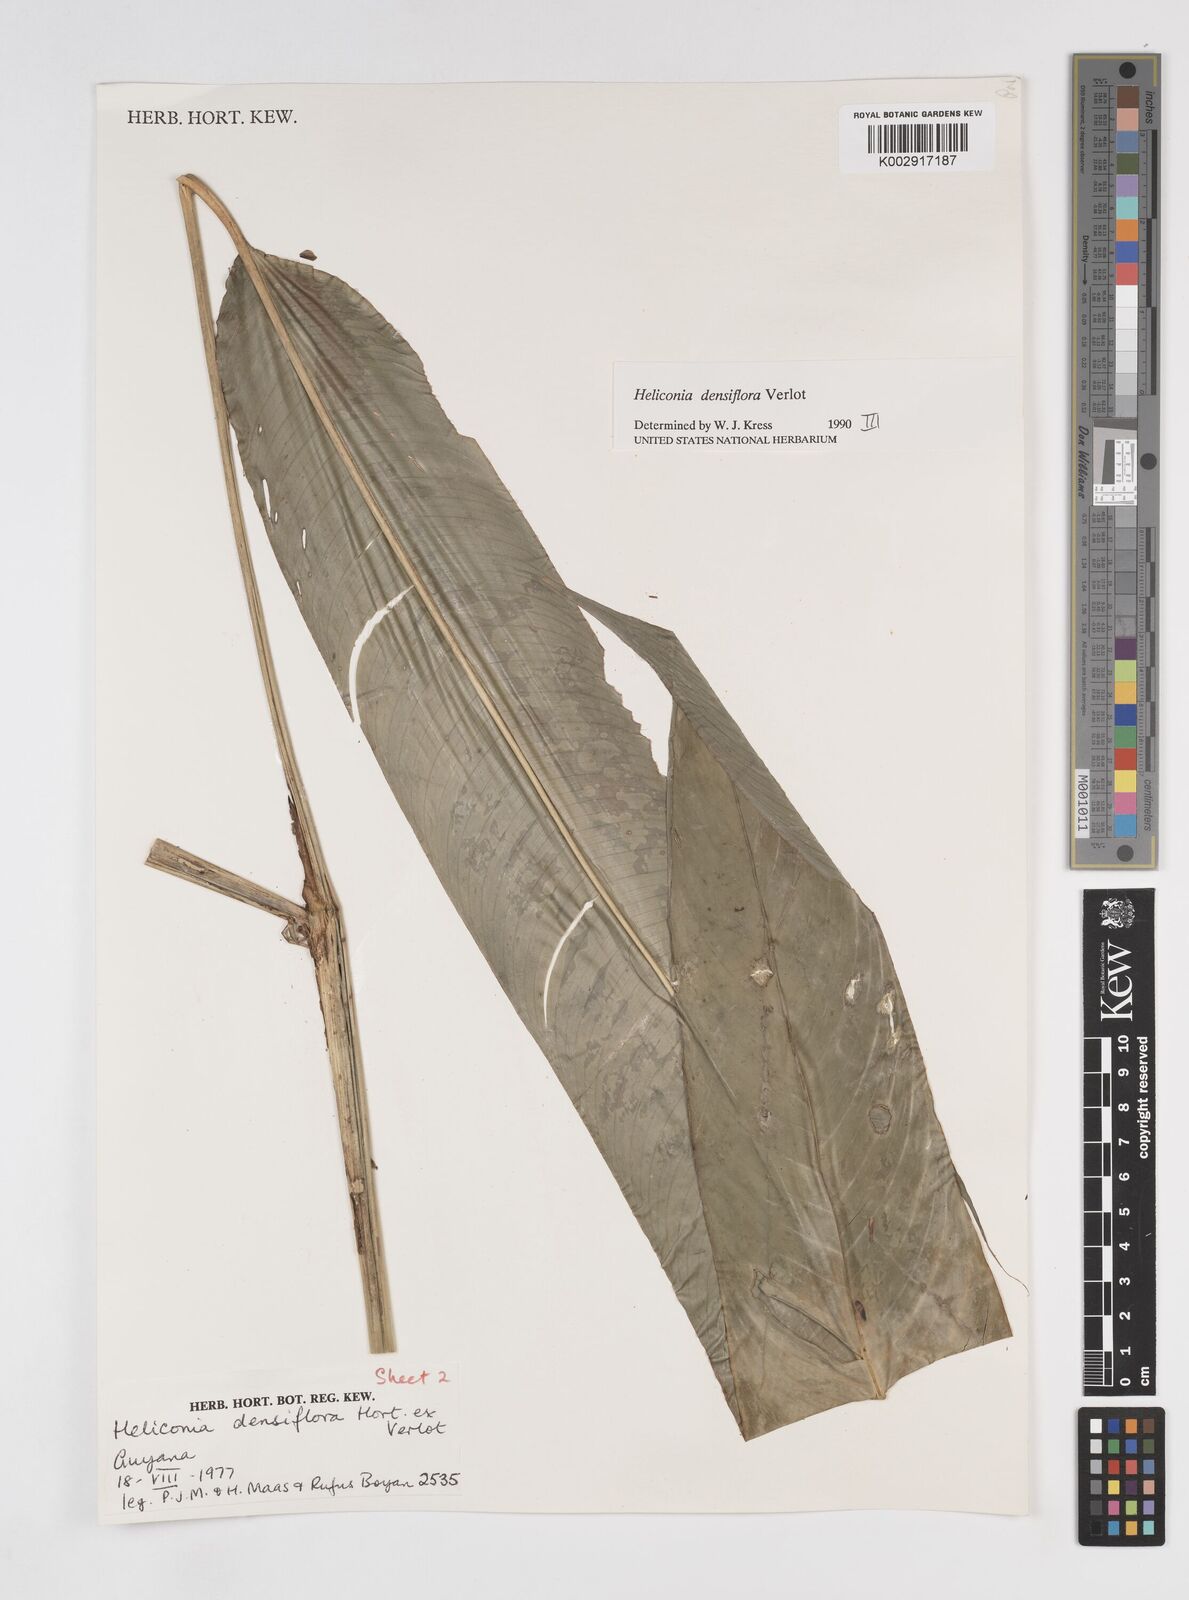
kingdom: Plantae
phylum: Tracheophyta
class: Liliopsida
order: Zingiberales
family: Heliconiaceae
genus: Heliconia
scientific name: Heliconia densiflora
